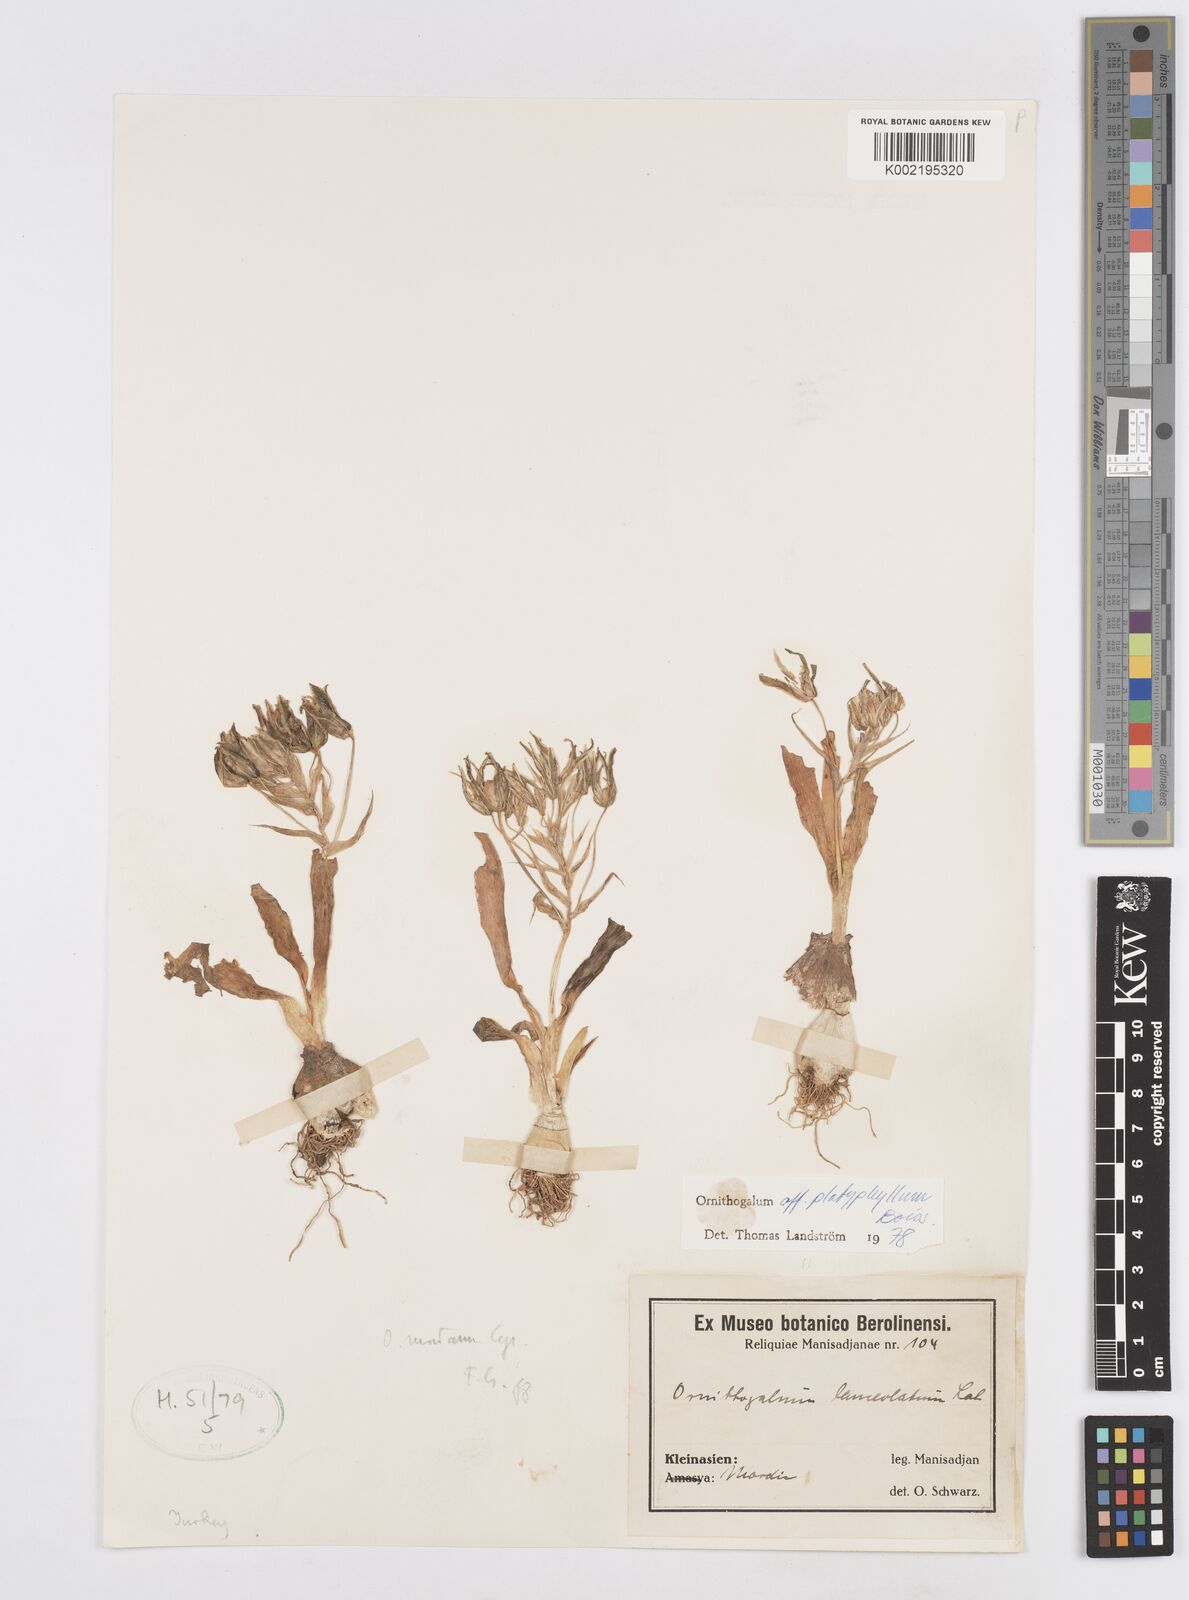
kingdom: Plantae
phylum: Tracheophyta
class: Liliopsida
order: Asparagales
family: Asparagaceae
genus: Ornithogalum
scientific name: Ornithogalum montanum
